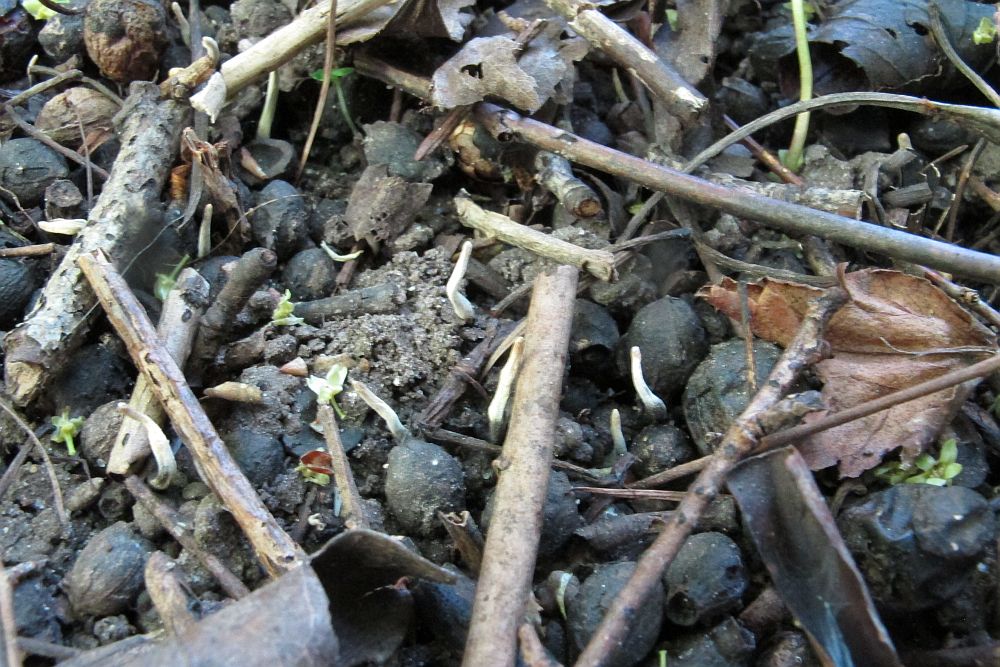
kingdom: Fungi
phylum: Ascomycota
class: Sordariomycetes
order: Xylariales
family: Xylariaceae
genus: Xylaria
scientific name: Xylaria oxyacanthae
